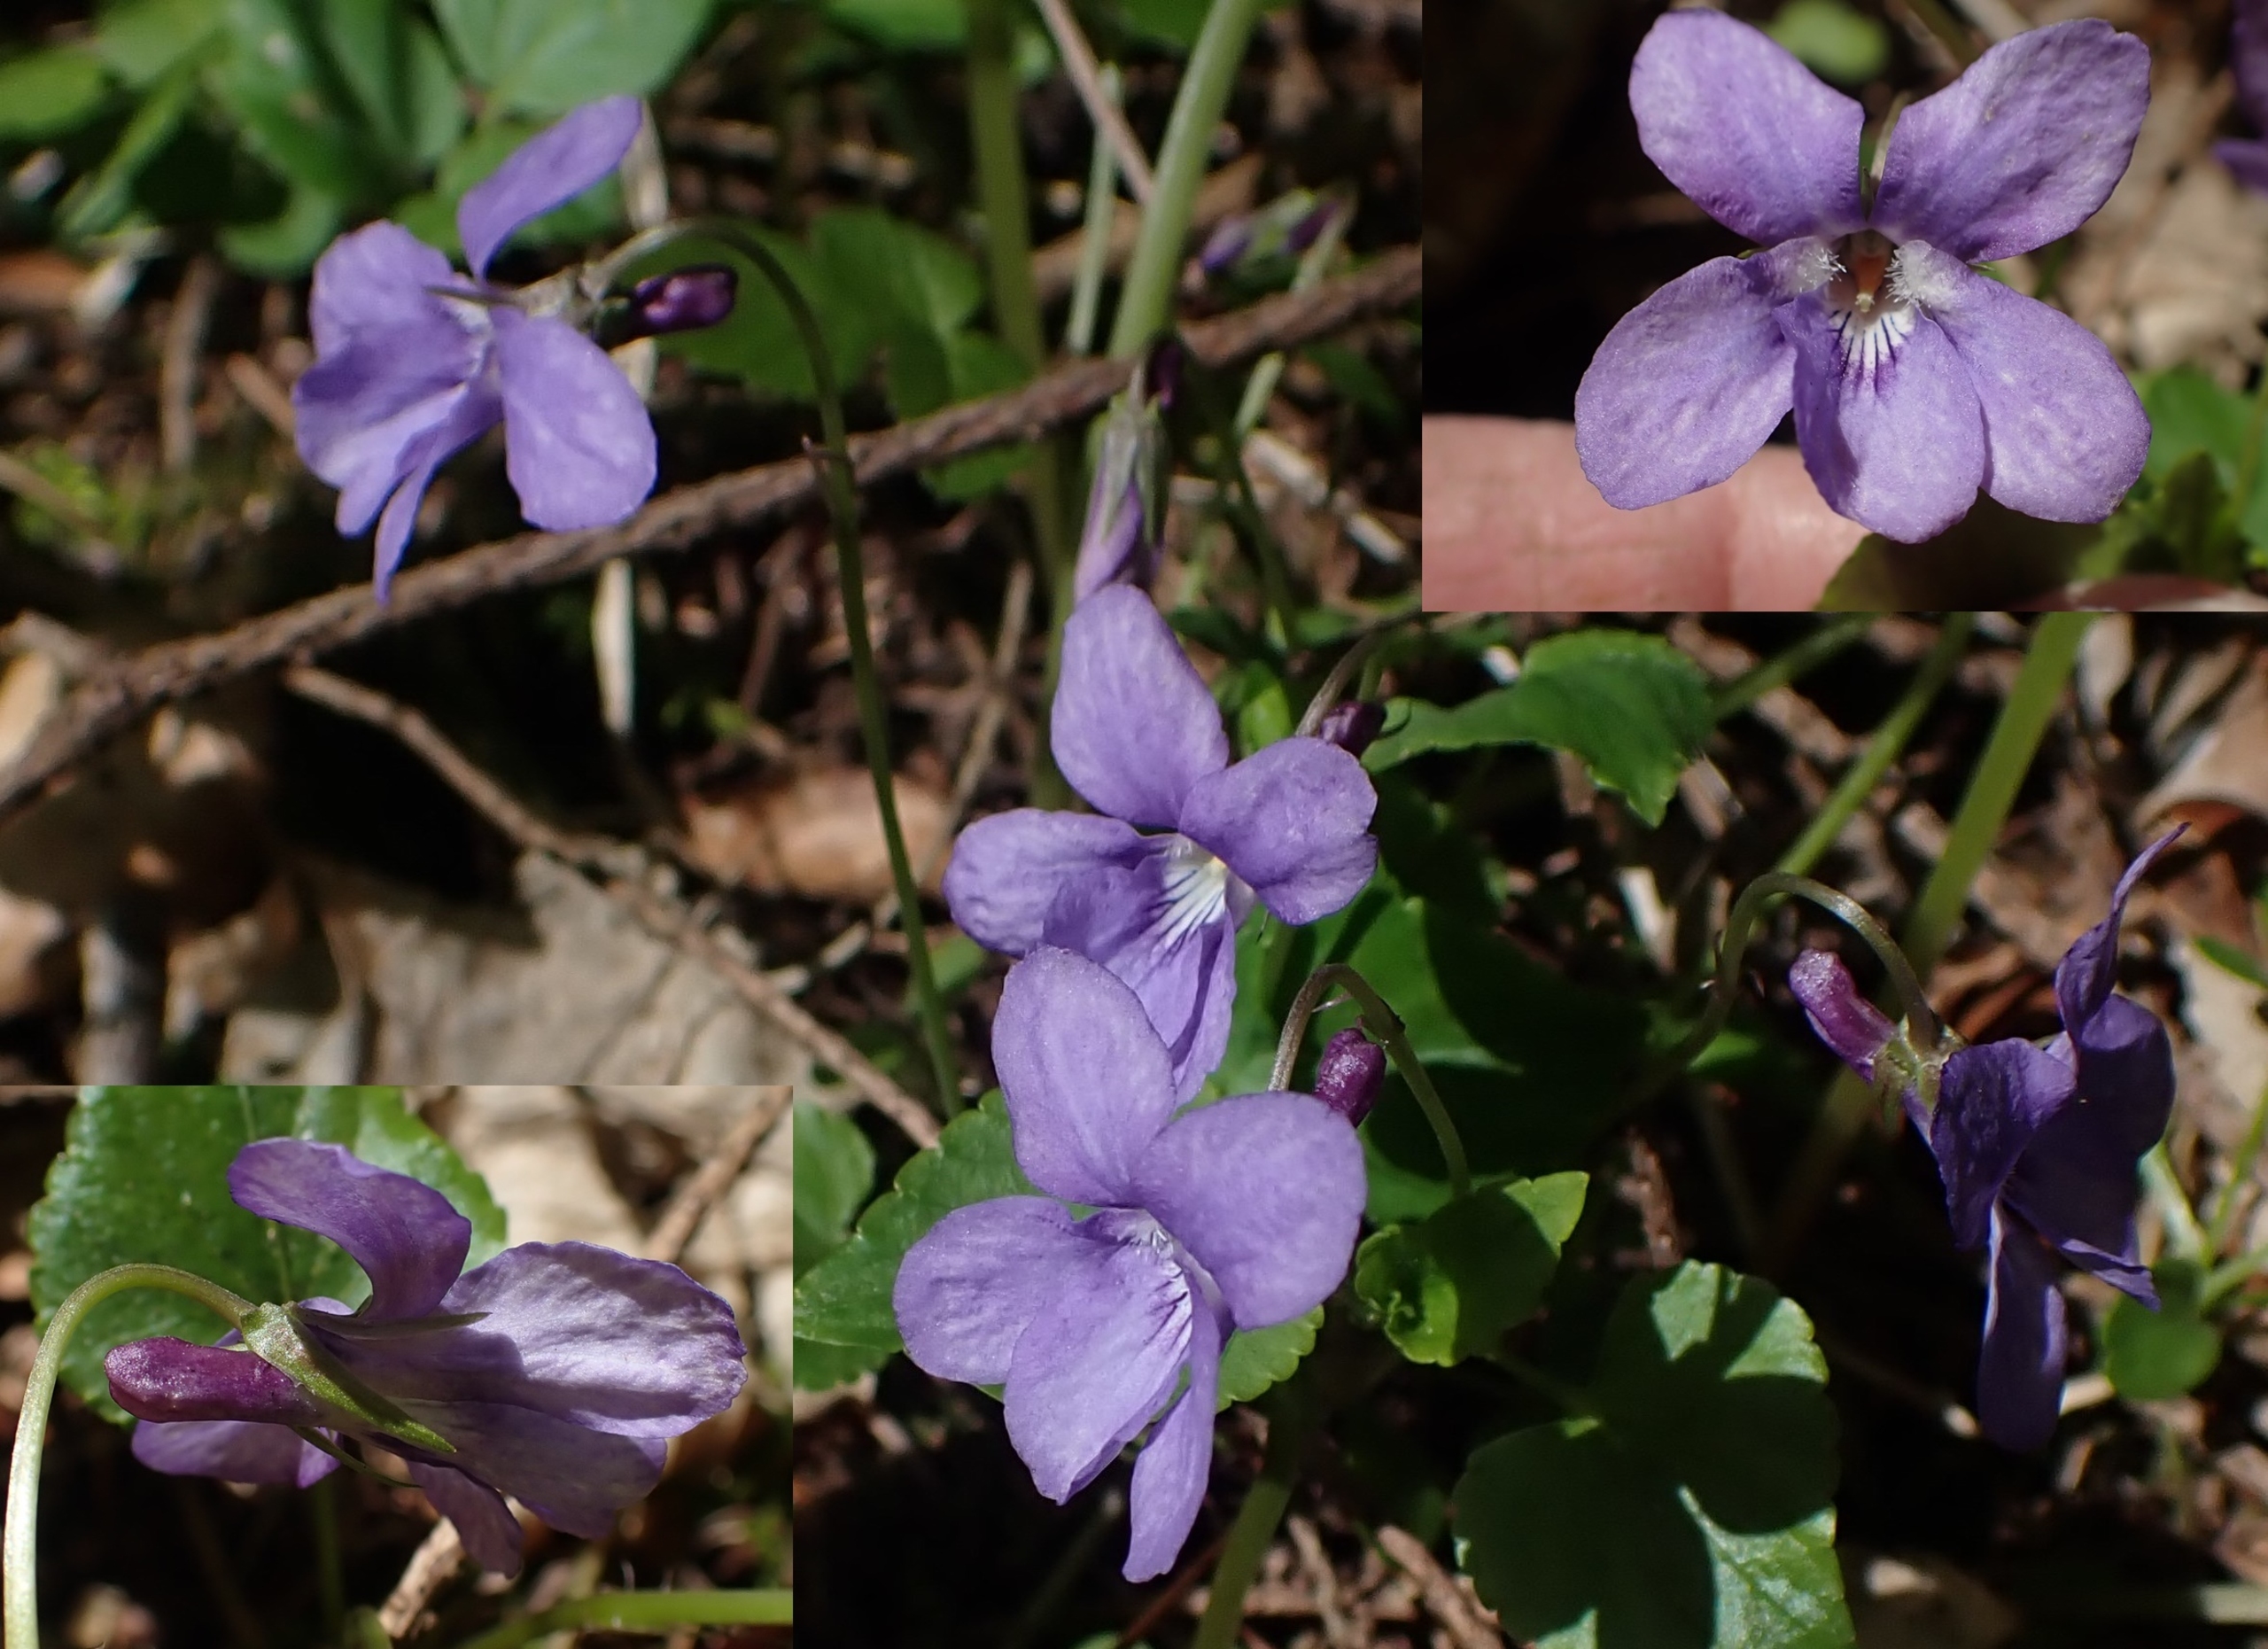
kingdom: Plantae
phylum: Tracheophyta
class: Magnoliopsida
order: Malpighiales
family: Violaceae
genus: Viola
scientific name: Viola reichenbachiana
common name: Skov-viol
